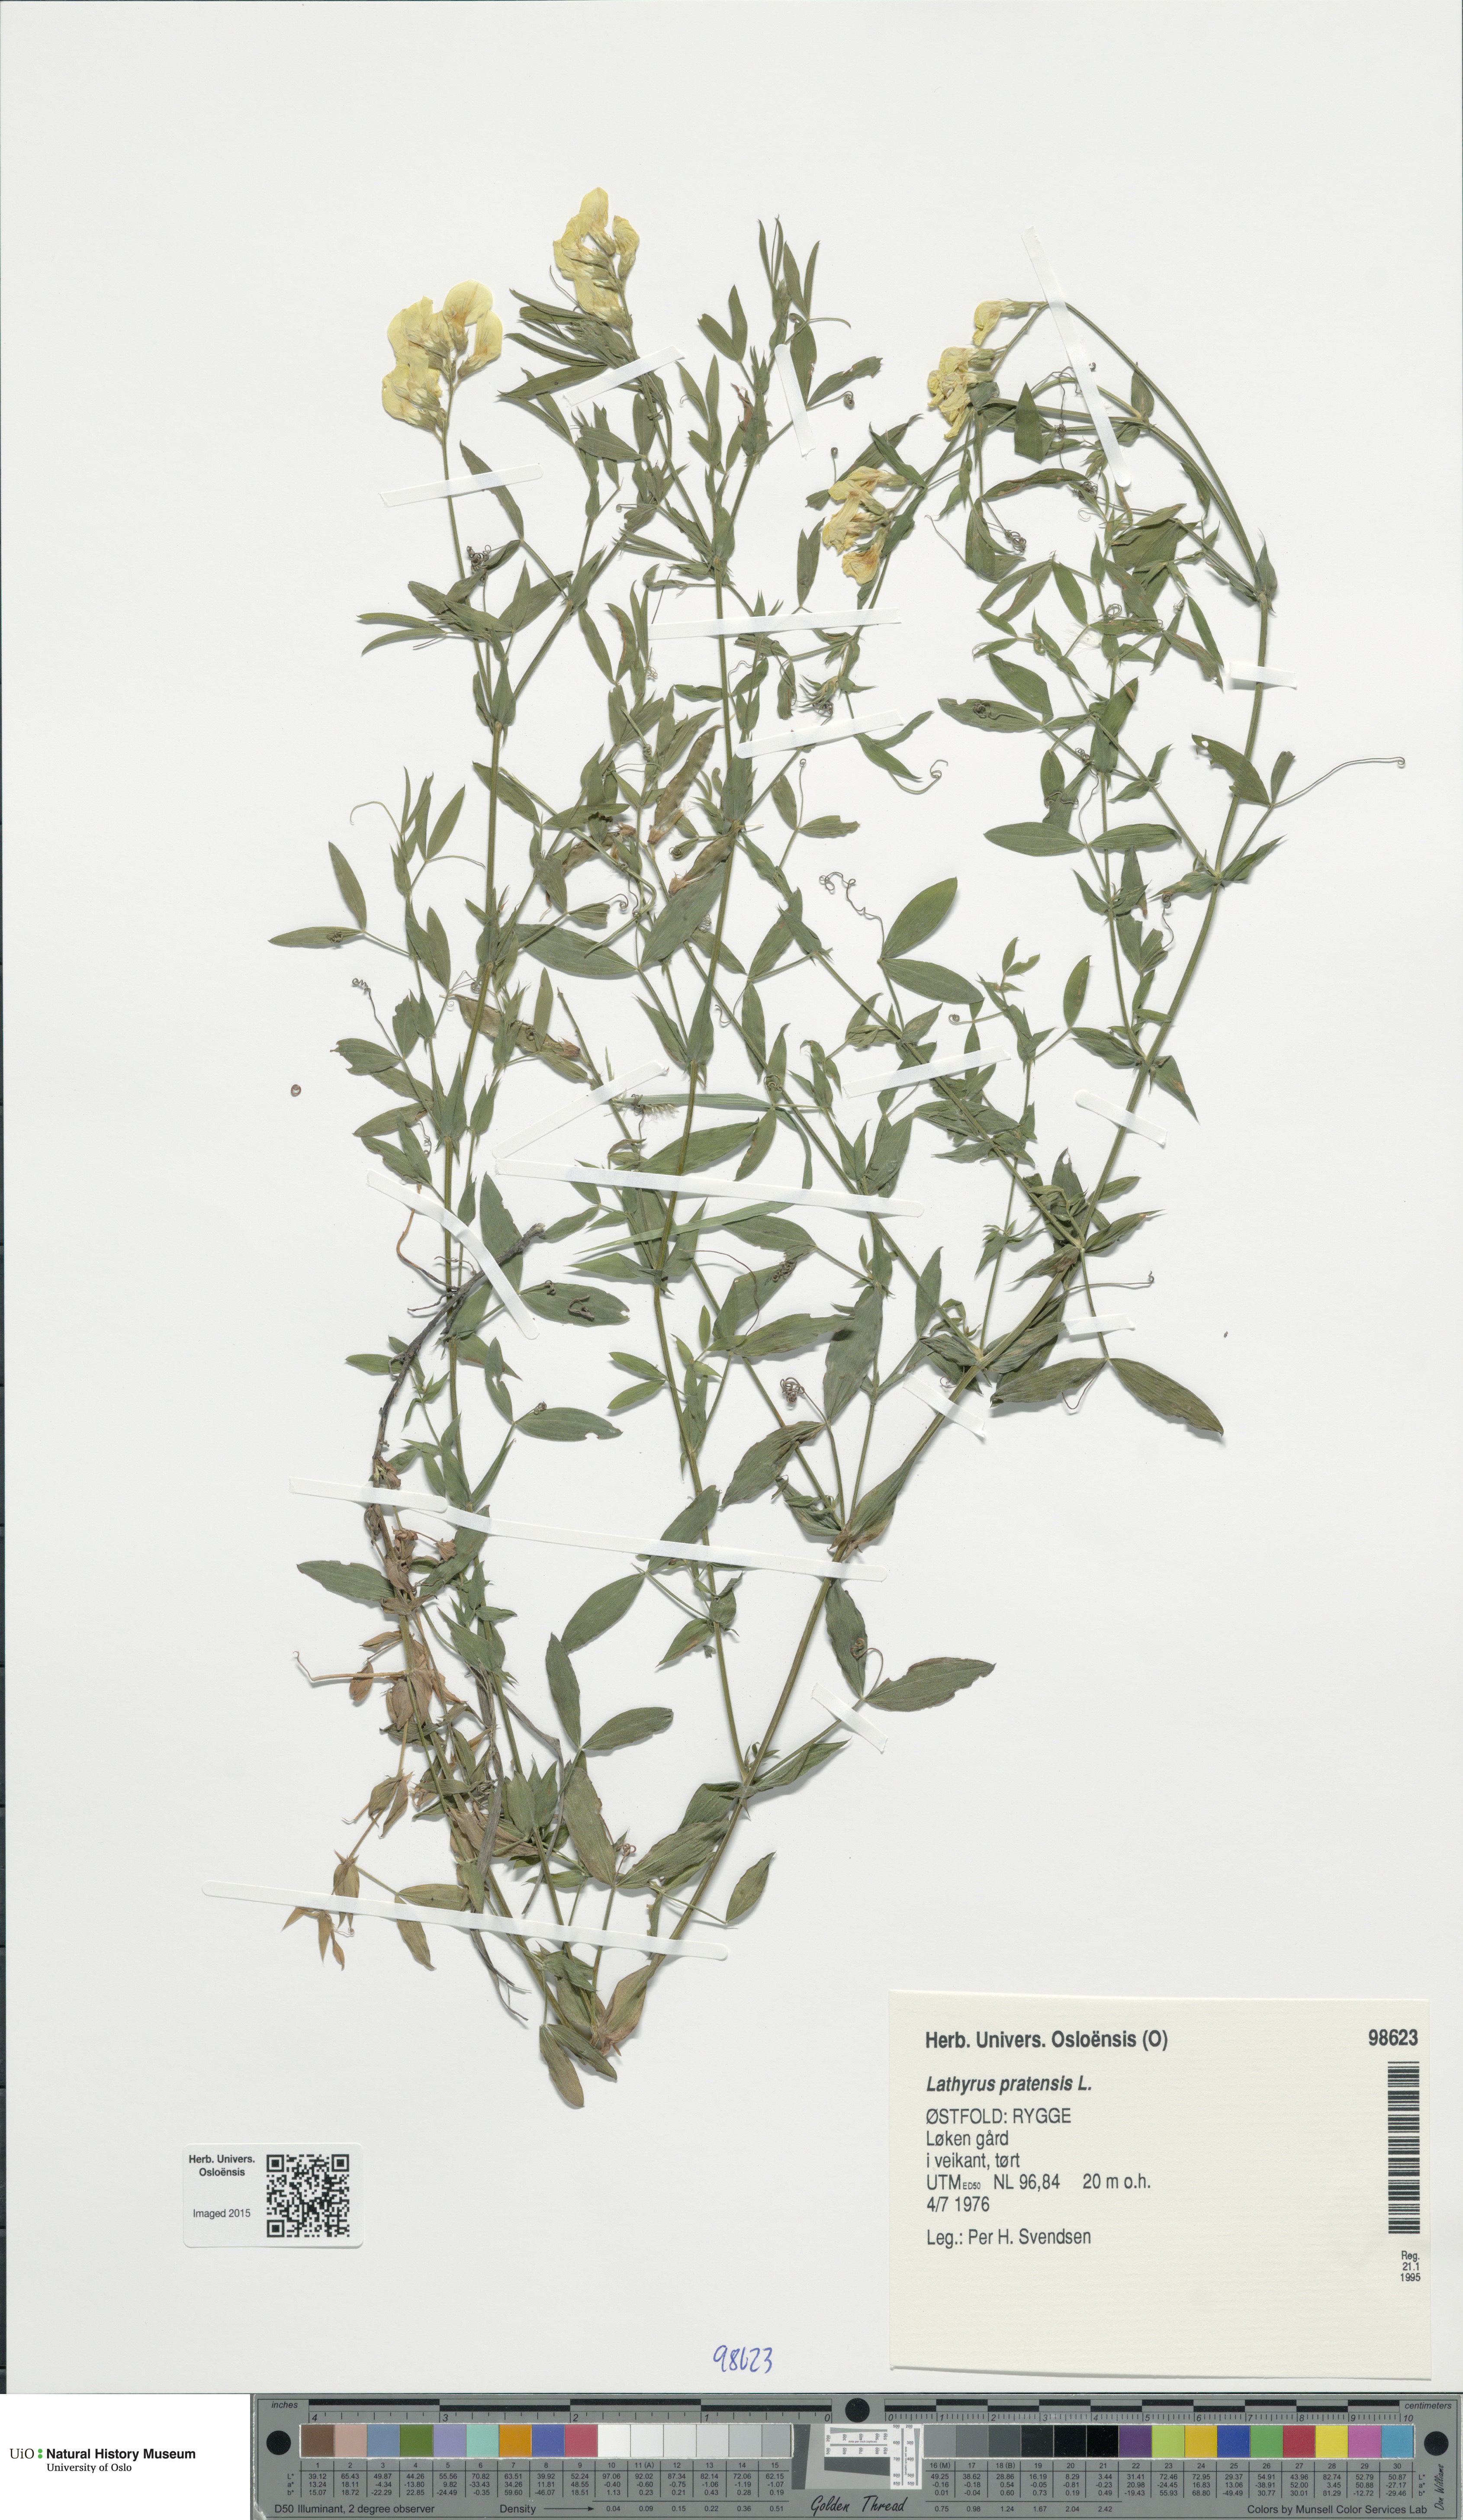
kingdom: Plantae
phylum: Tracheophyta
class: Magnoliopsida
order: Fabales
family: Fabaceae
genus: Lathyrus
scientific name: Lathyrus pratensis
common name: Meadow vetchling
